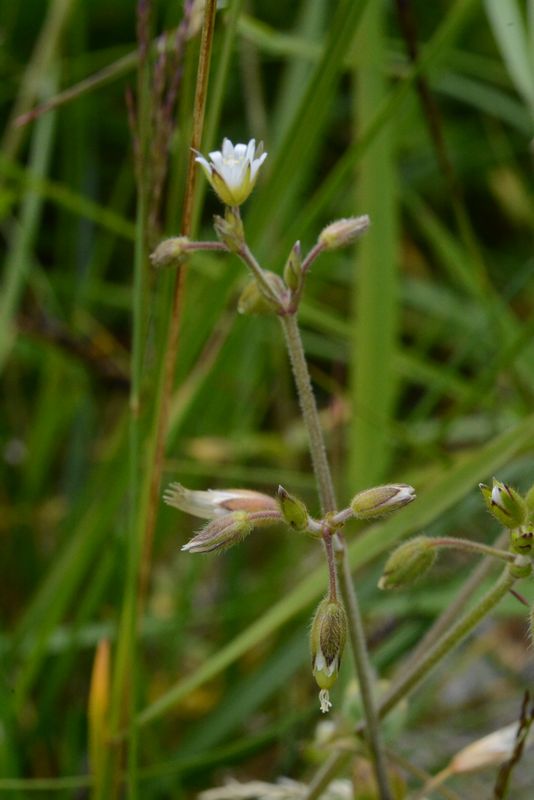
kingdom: Plantae
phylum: Tracheophyta
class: Magnoliopsida
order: Caryophyllales
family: Caryophyllaceae
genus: Cerastium
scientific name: Cerastium holosteoides
